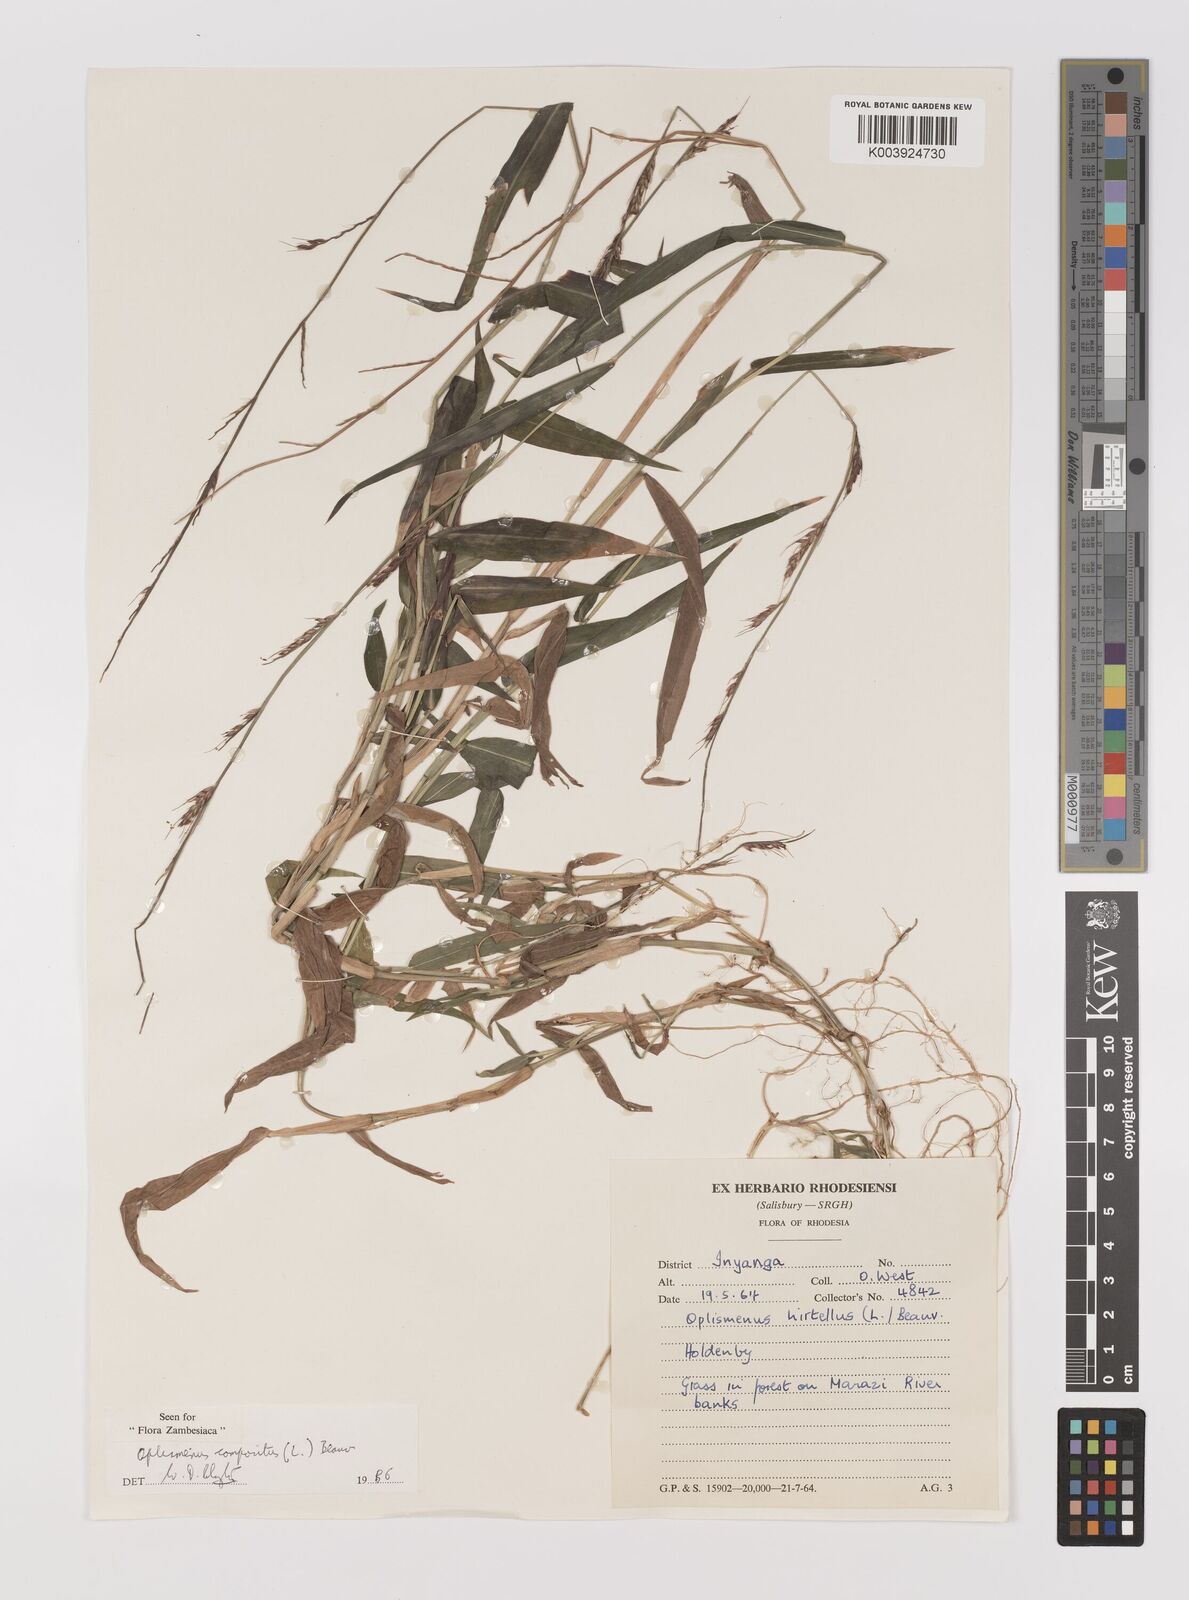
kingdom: Plantae
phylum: Tracheophyta
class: Liliopsida
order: Poales
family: Poaceae
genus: Oplismenus
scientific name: Oplismenus compositus
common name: Running mountain grass
